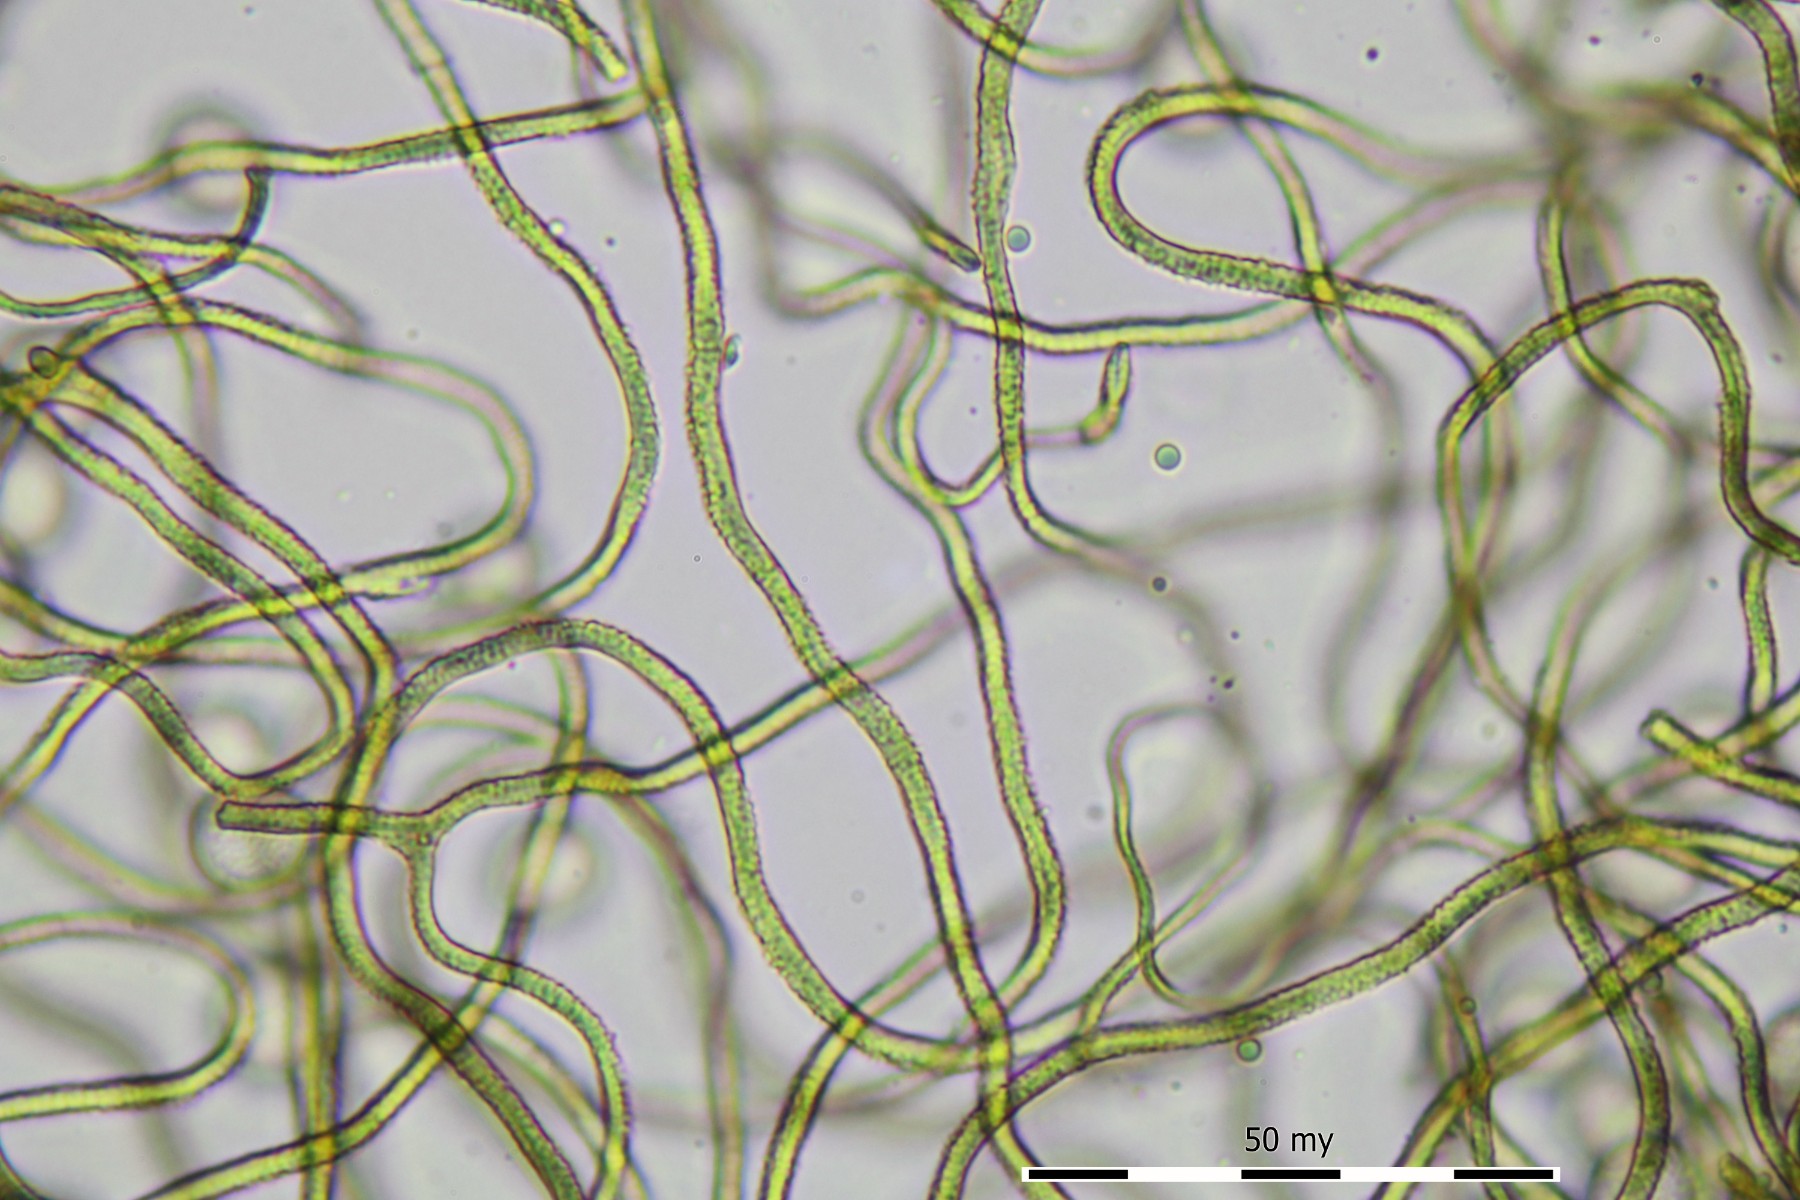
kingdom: Protozoa
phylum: Mycetozoa
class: Myxomycetes
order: Trichiales
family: Dianemataceae
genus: Calomyxa
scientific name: Calomyxa metallica
